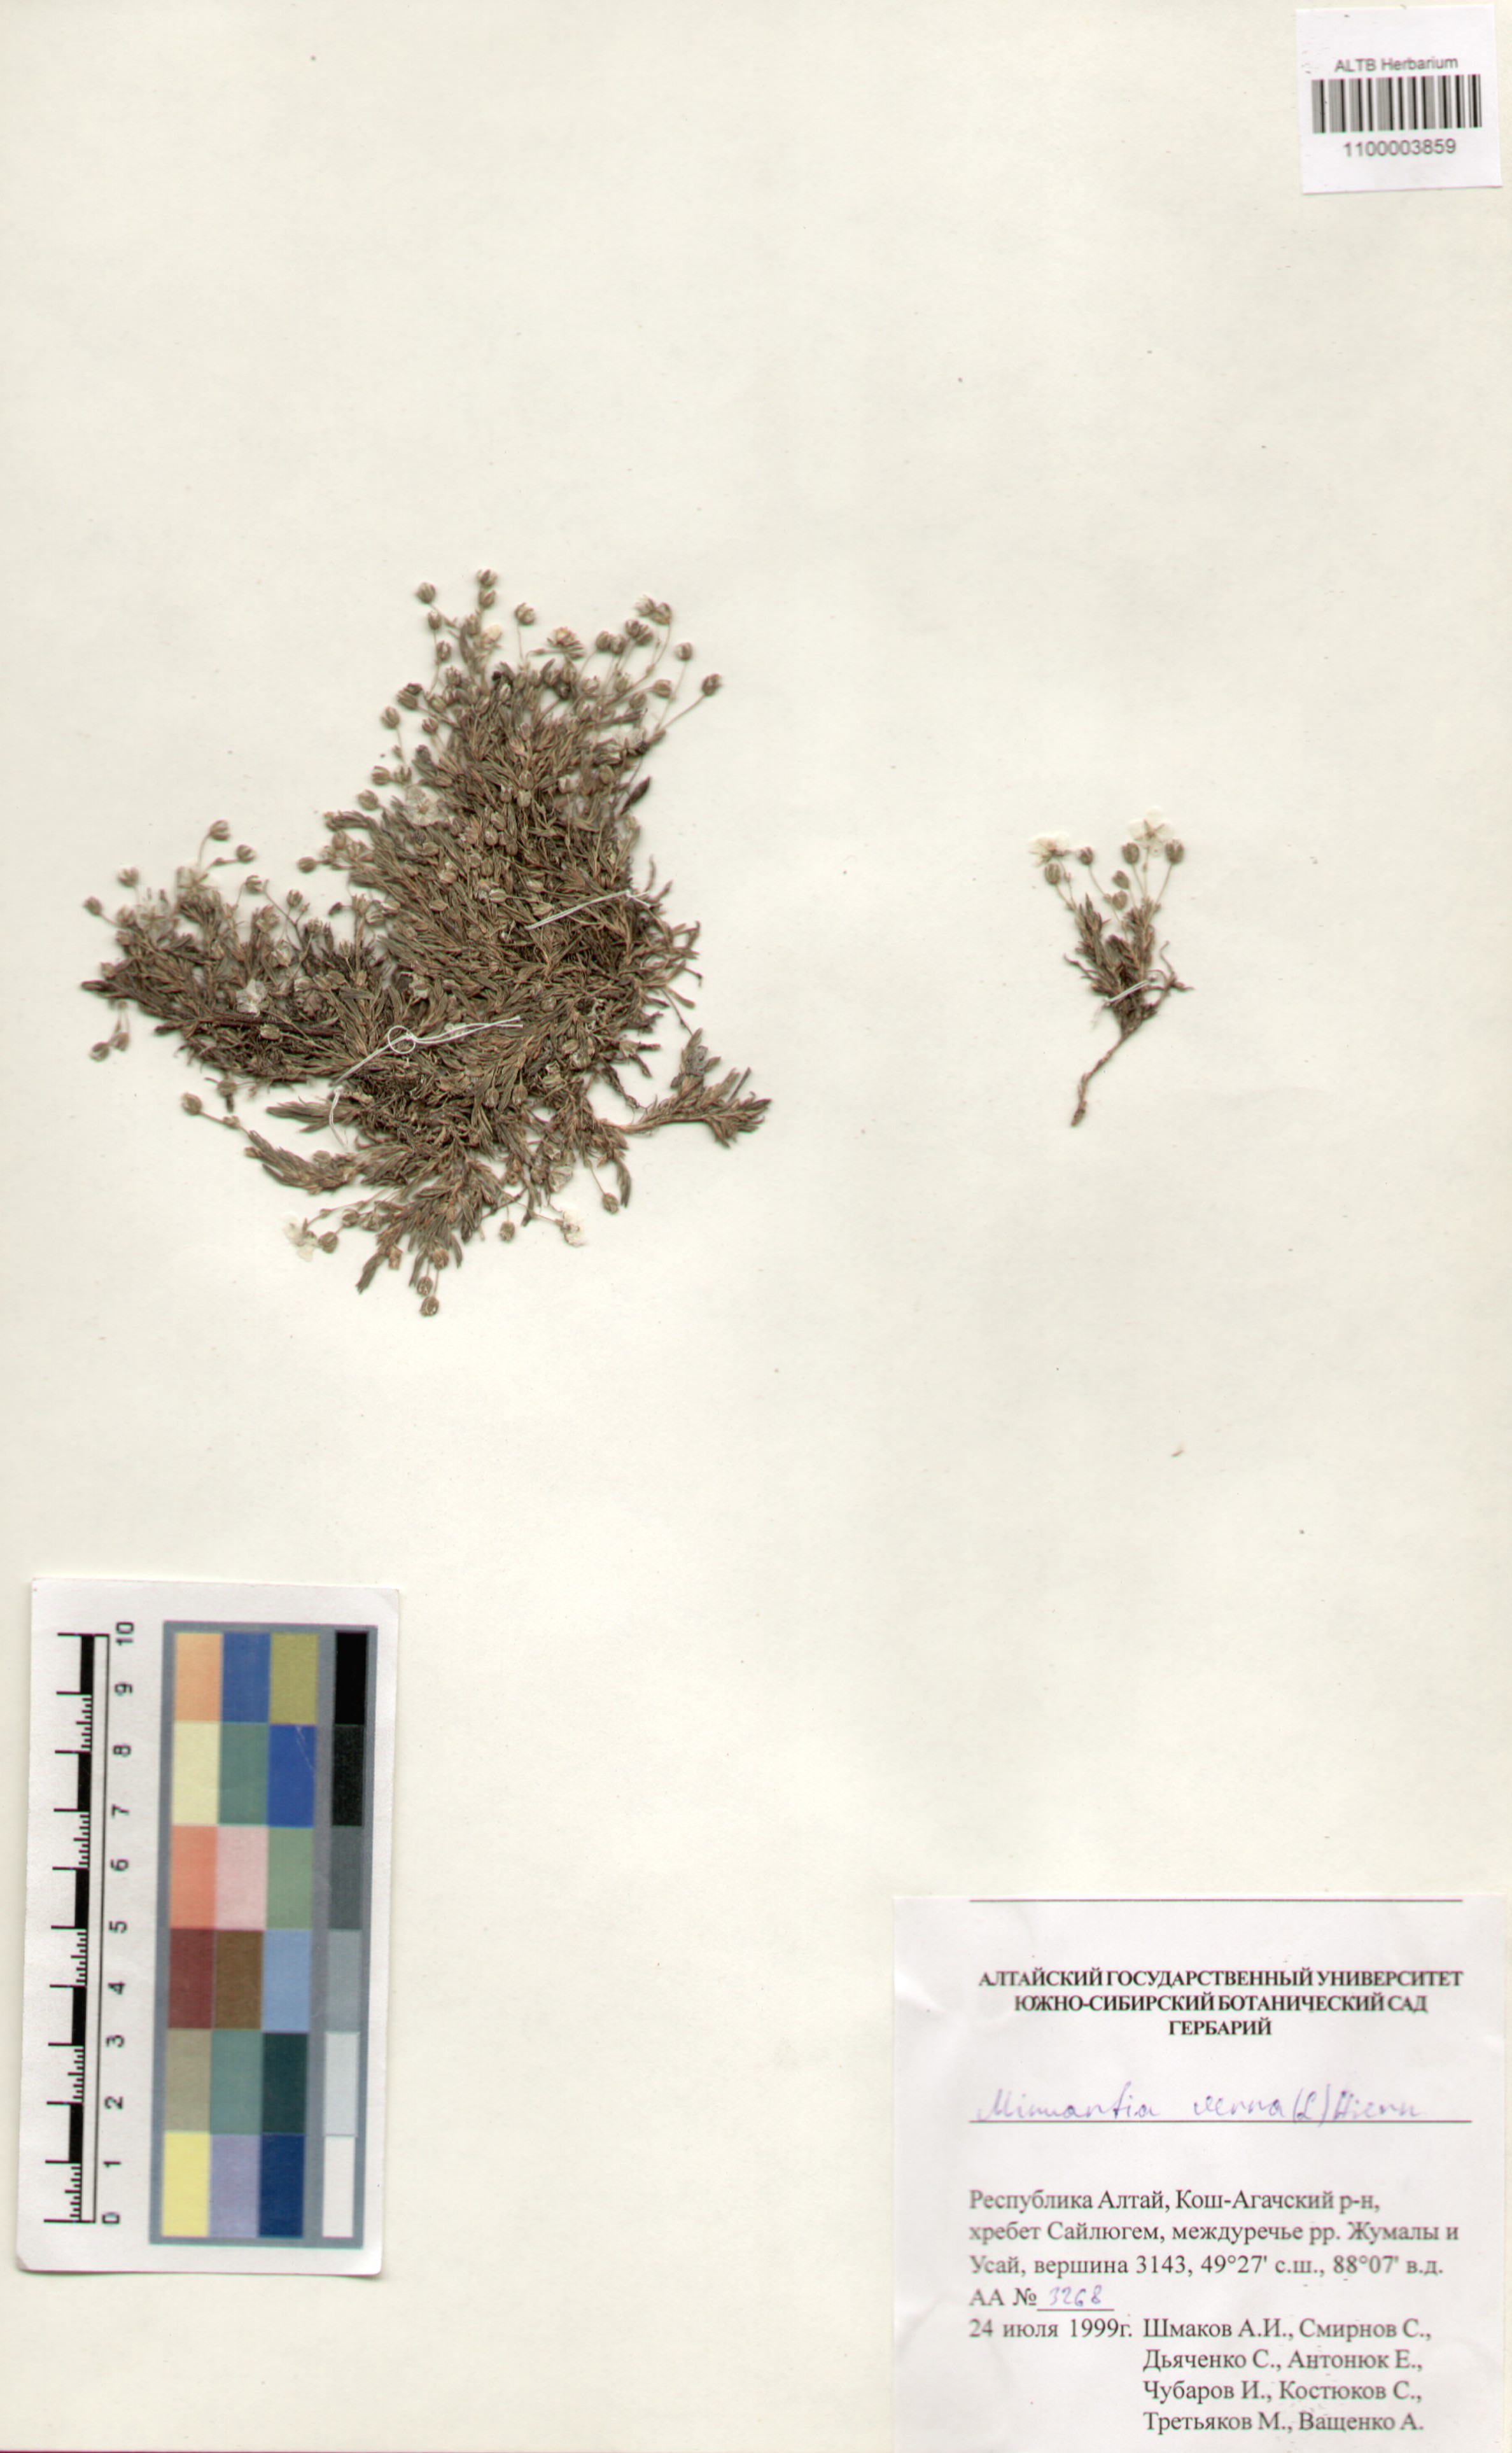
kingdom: Plantae
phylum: Tracheophyta
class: Magnoliopsida
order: Caryophyllales
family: Caryophyllaceae
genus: Sabulina
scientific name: Sabulina verna
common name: Spring sandwort
